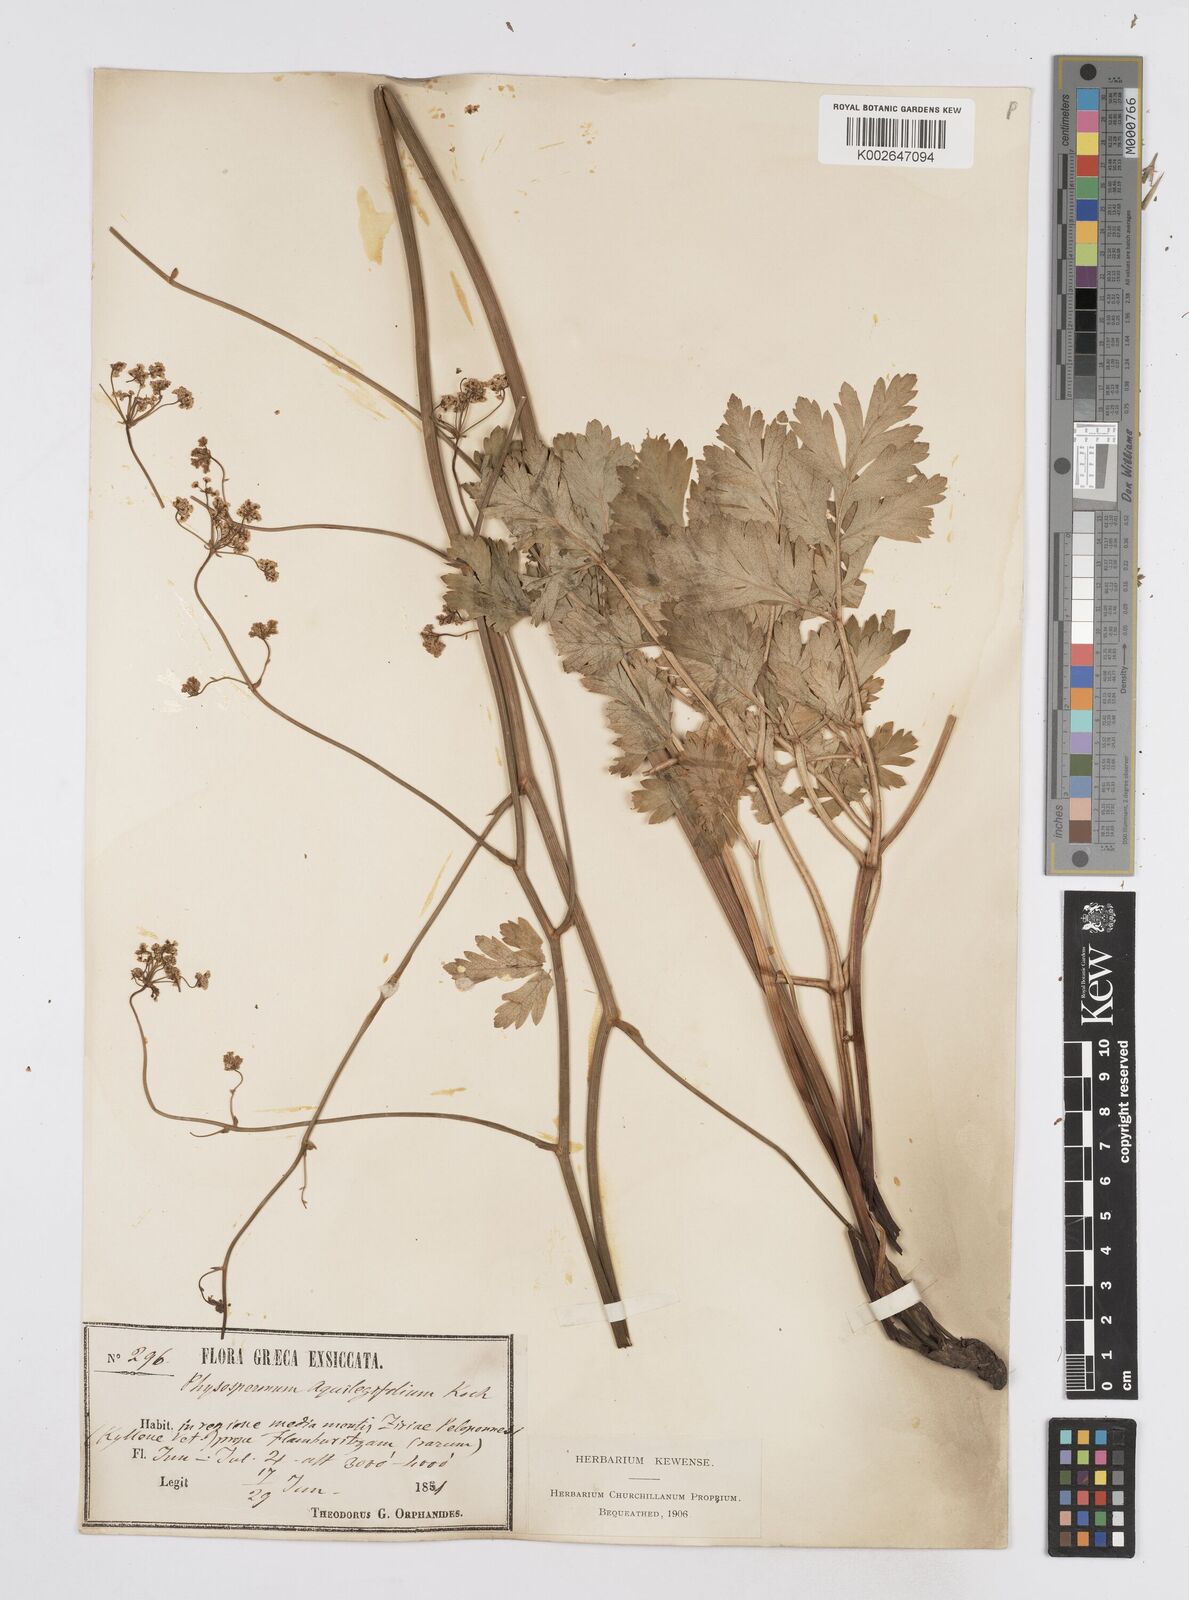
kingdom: Plantae
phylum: Tracheophyta
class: Magnoliopsida
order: Apiales
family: Apiaceae
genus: Physospermum
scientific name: Physospermum cornubiense
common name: Bladderseed
